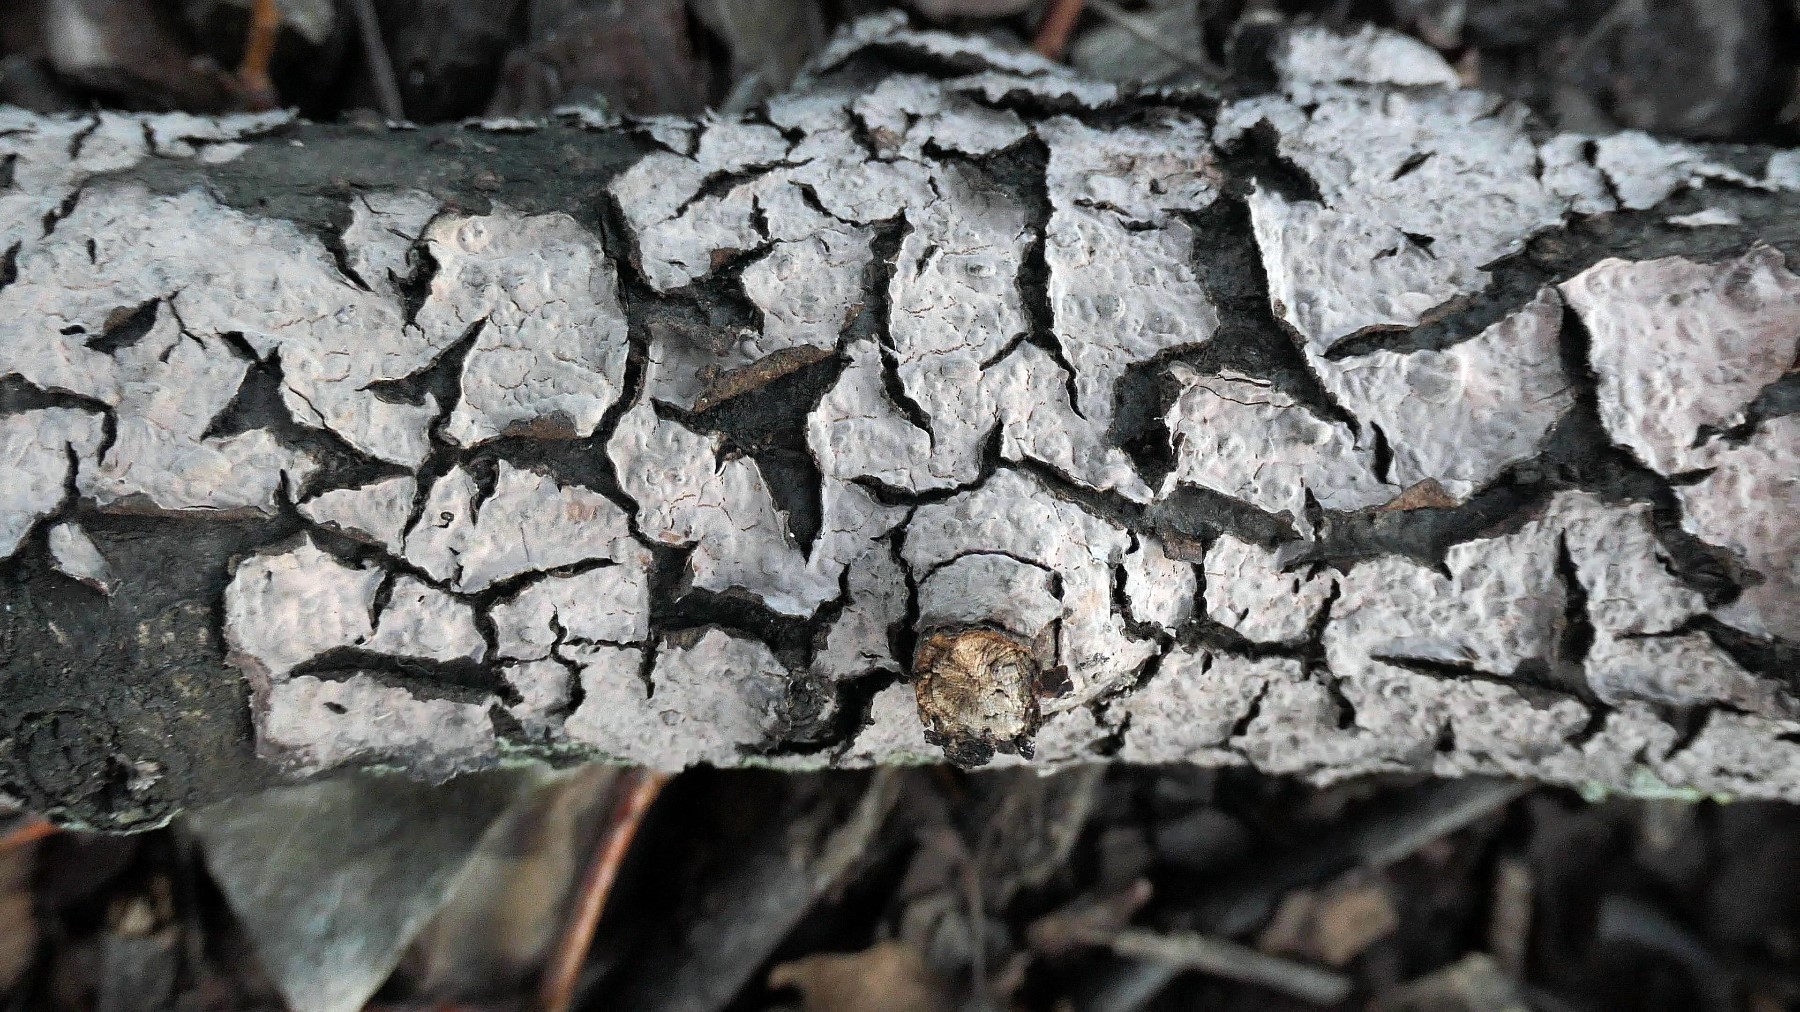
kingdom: Fungi
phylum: Basidiomycota
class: Agaricomycetes
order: Russulales
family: Peniophoraceae
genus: Peniophora
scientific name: Peniophora rufomarginata
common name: linde-voksskind
